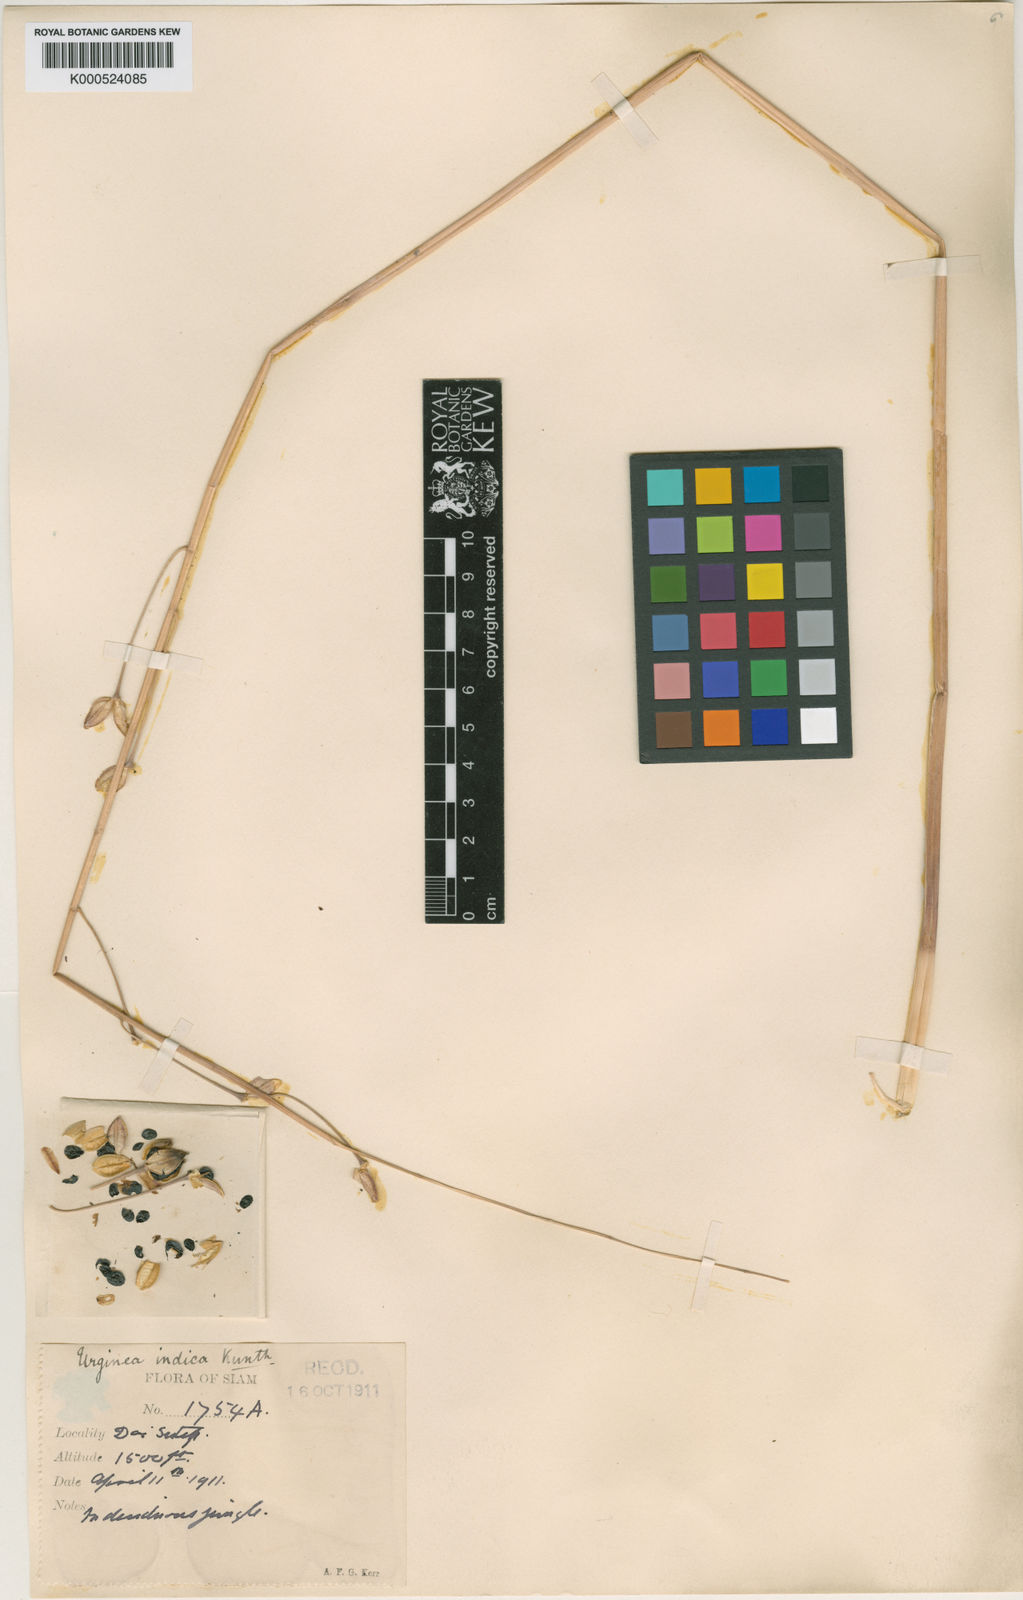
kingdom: Plantae
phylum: Tracheophyta
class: Liliopsida
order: Asparagales
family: Asparagaceae
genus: Drimia
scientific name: Drimia indica
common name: Indian-squill
